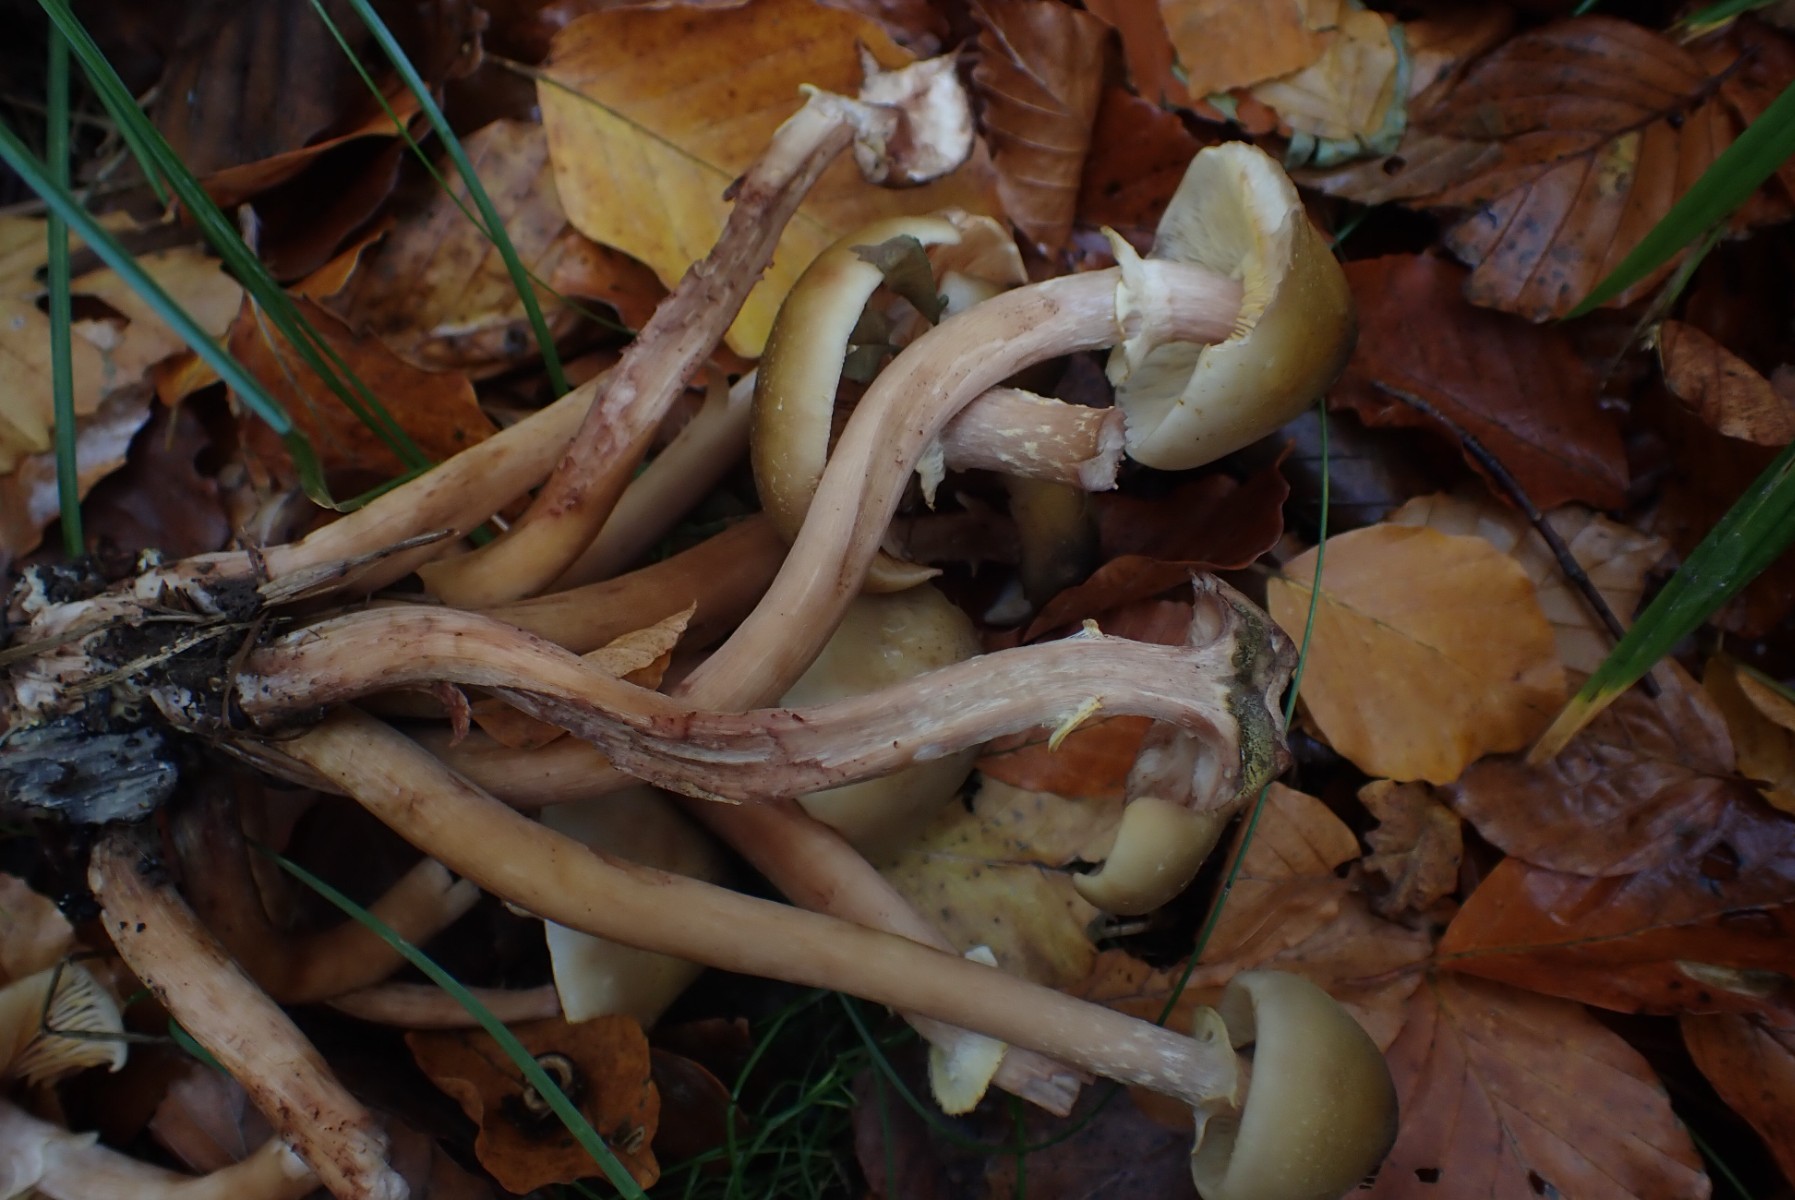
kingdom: Fungi
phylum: Basidiomycota
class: Agaricomycetes
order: Agaricales
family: Physalacriaceae
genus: Armillaria
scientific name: Armillaria mellea
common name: ægte honningsvamp
